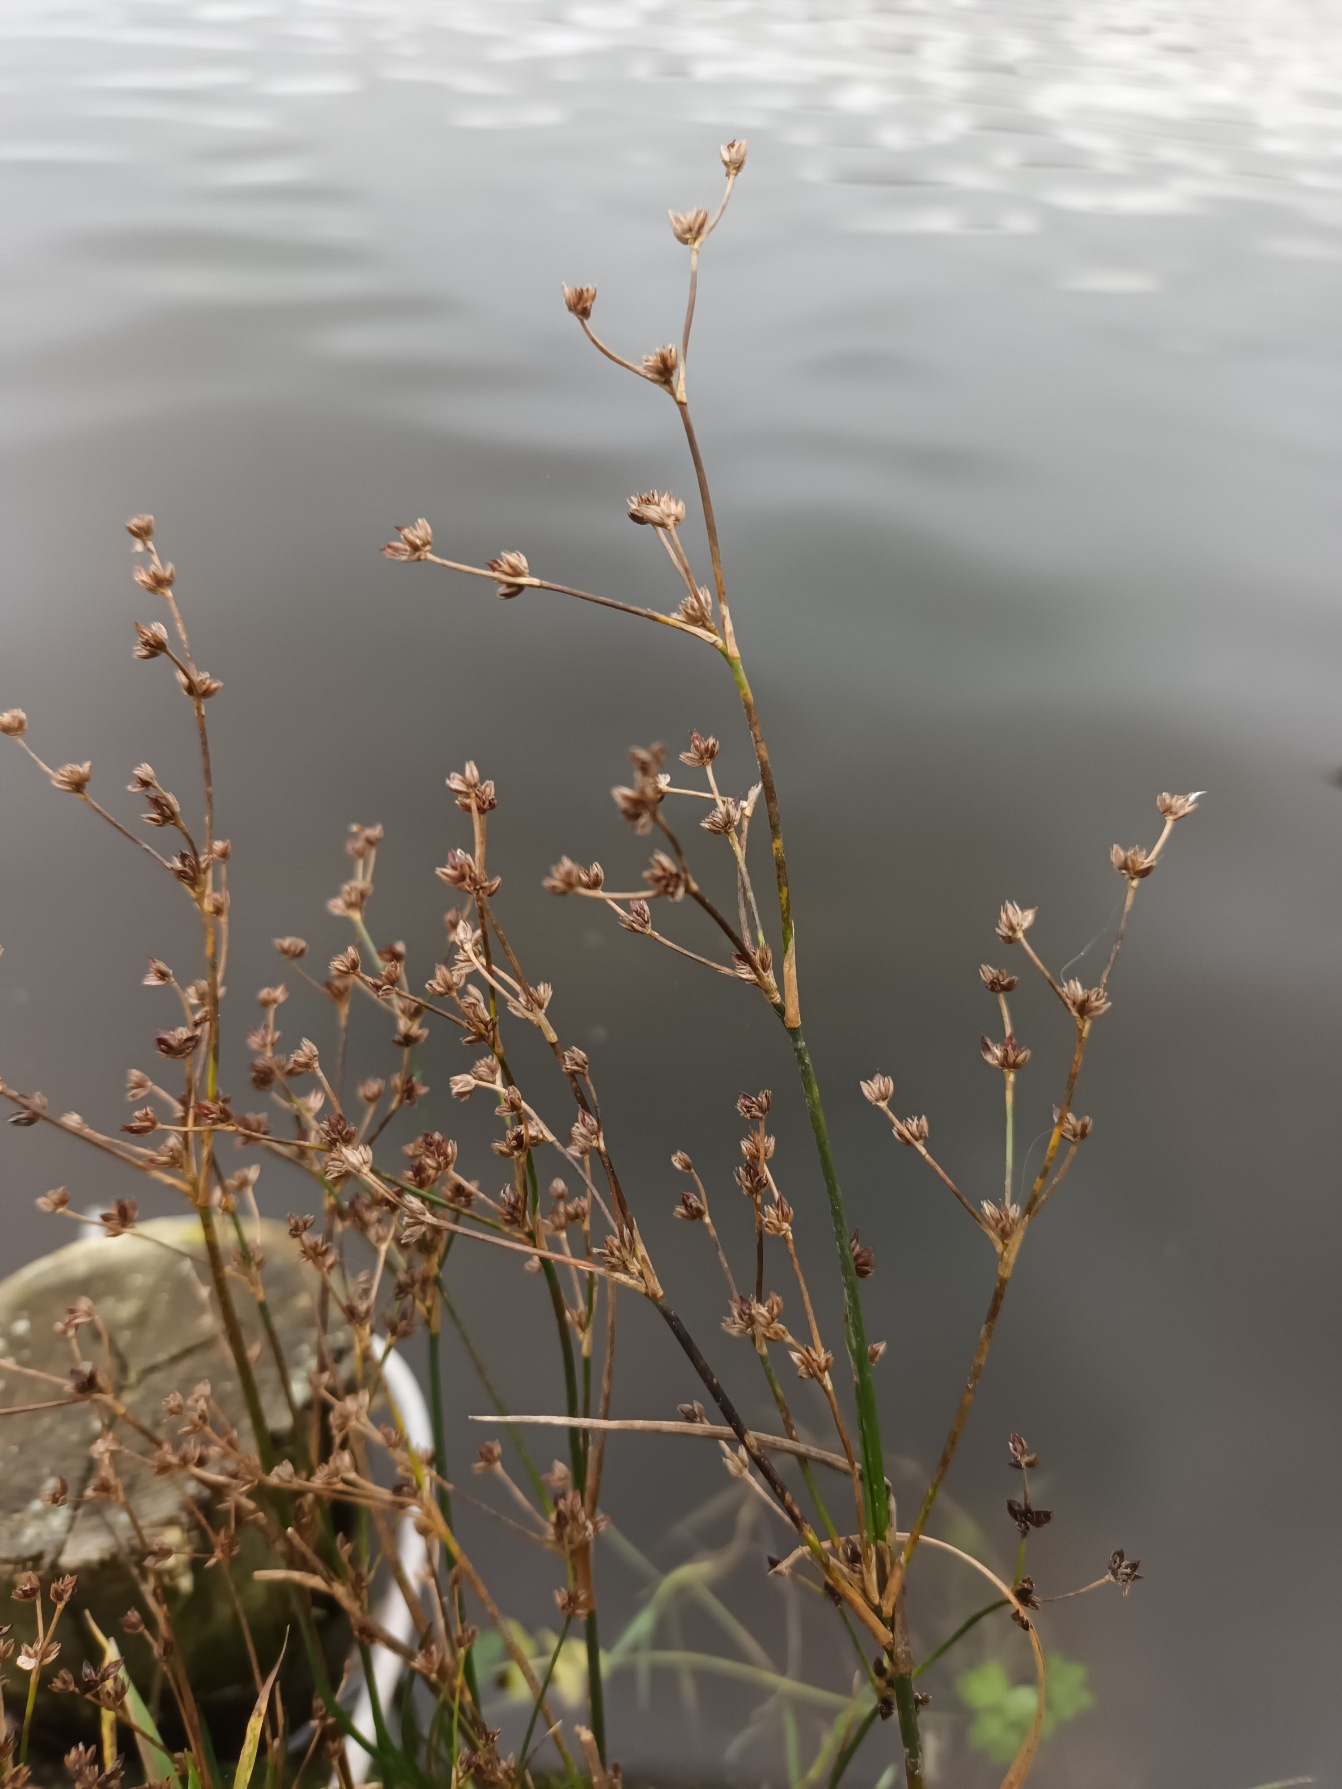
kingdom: Plantae
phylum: Tracheophyta
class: Liliopsida
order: Poales
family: Juncaceae
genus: Juncus
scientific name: Juncus articulatus
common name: Glanskapslet siv
